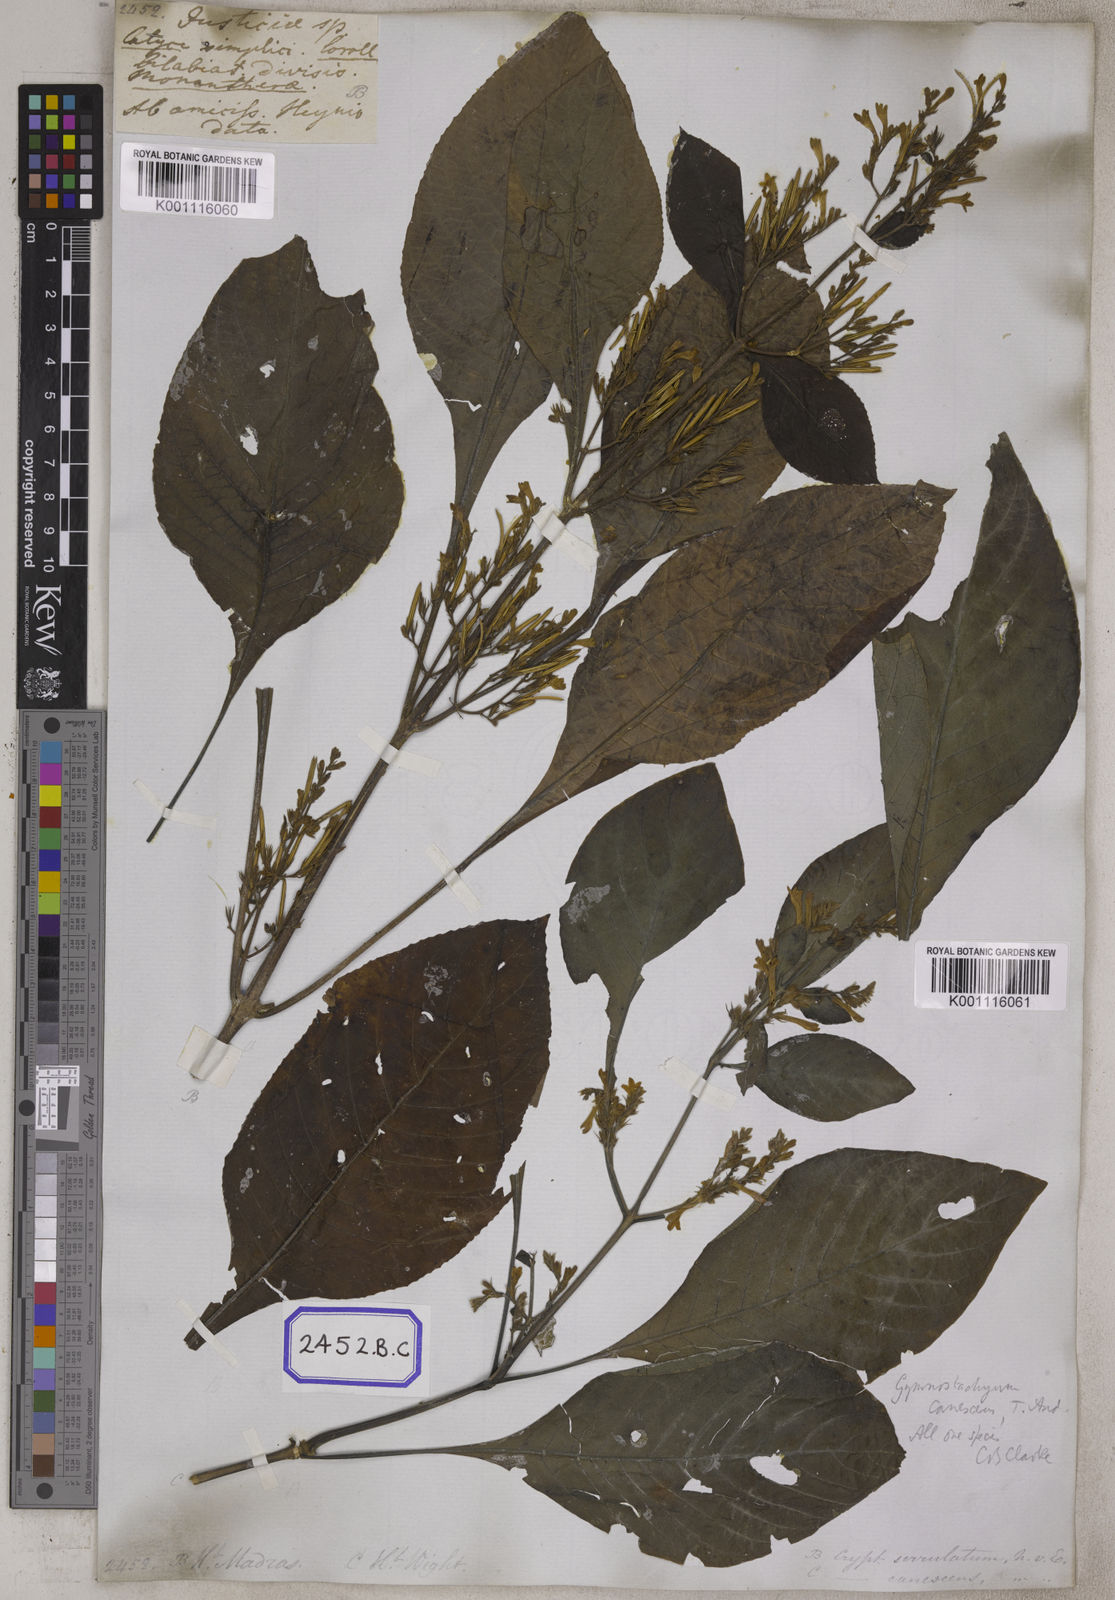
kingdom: Plantae
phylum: Tracheophyta
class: Magnoliopsida
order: Lamiales
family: Acanthaceae
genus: Gymnostachyum
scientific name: Gymnostachyum pubescens
